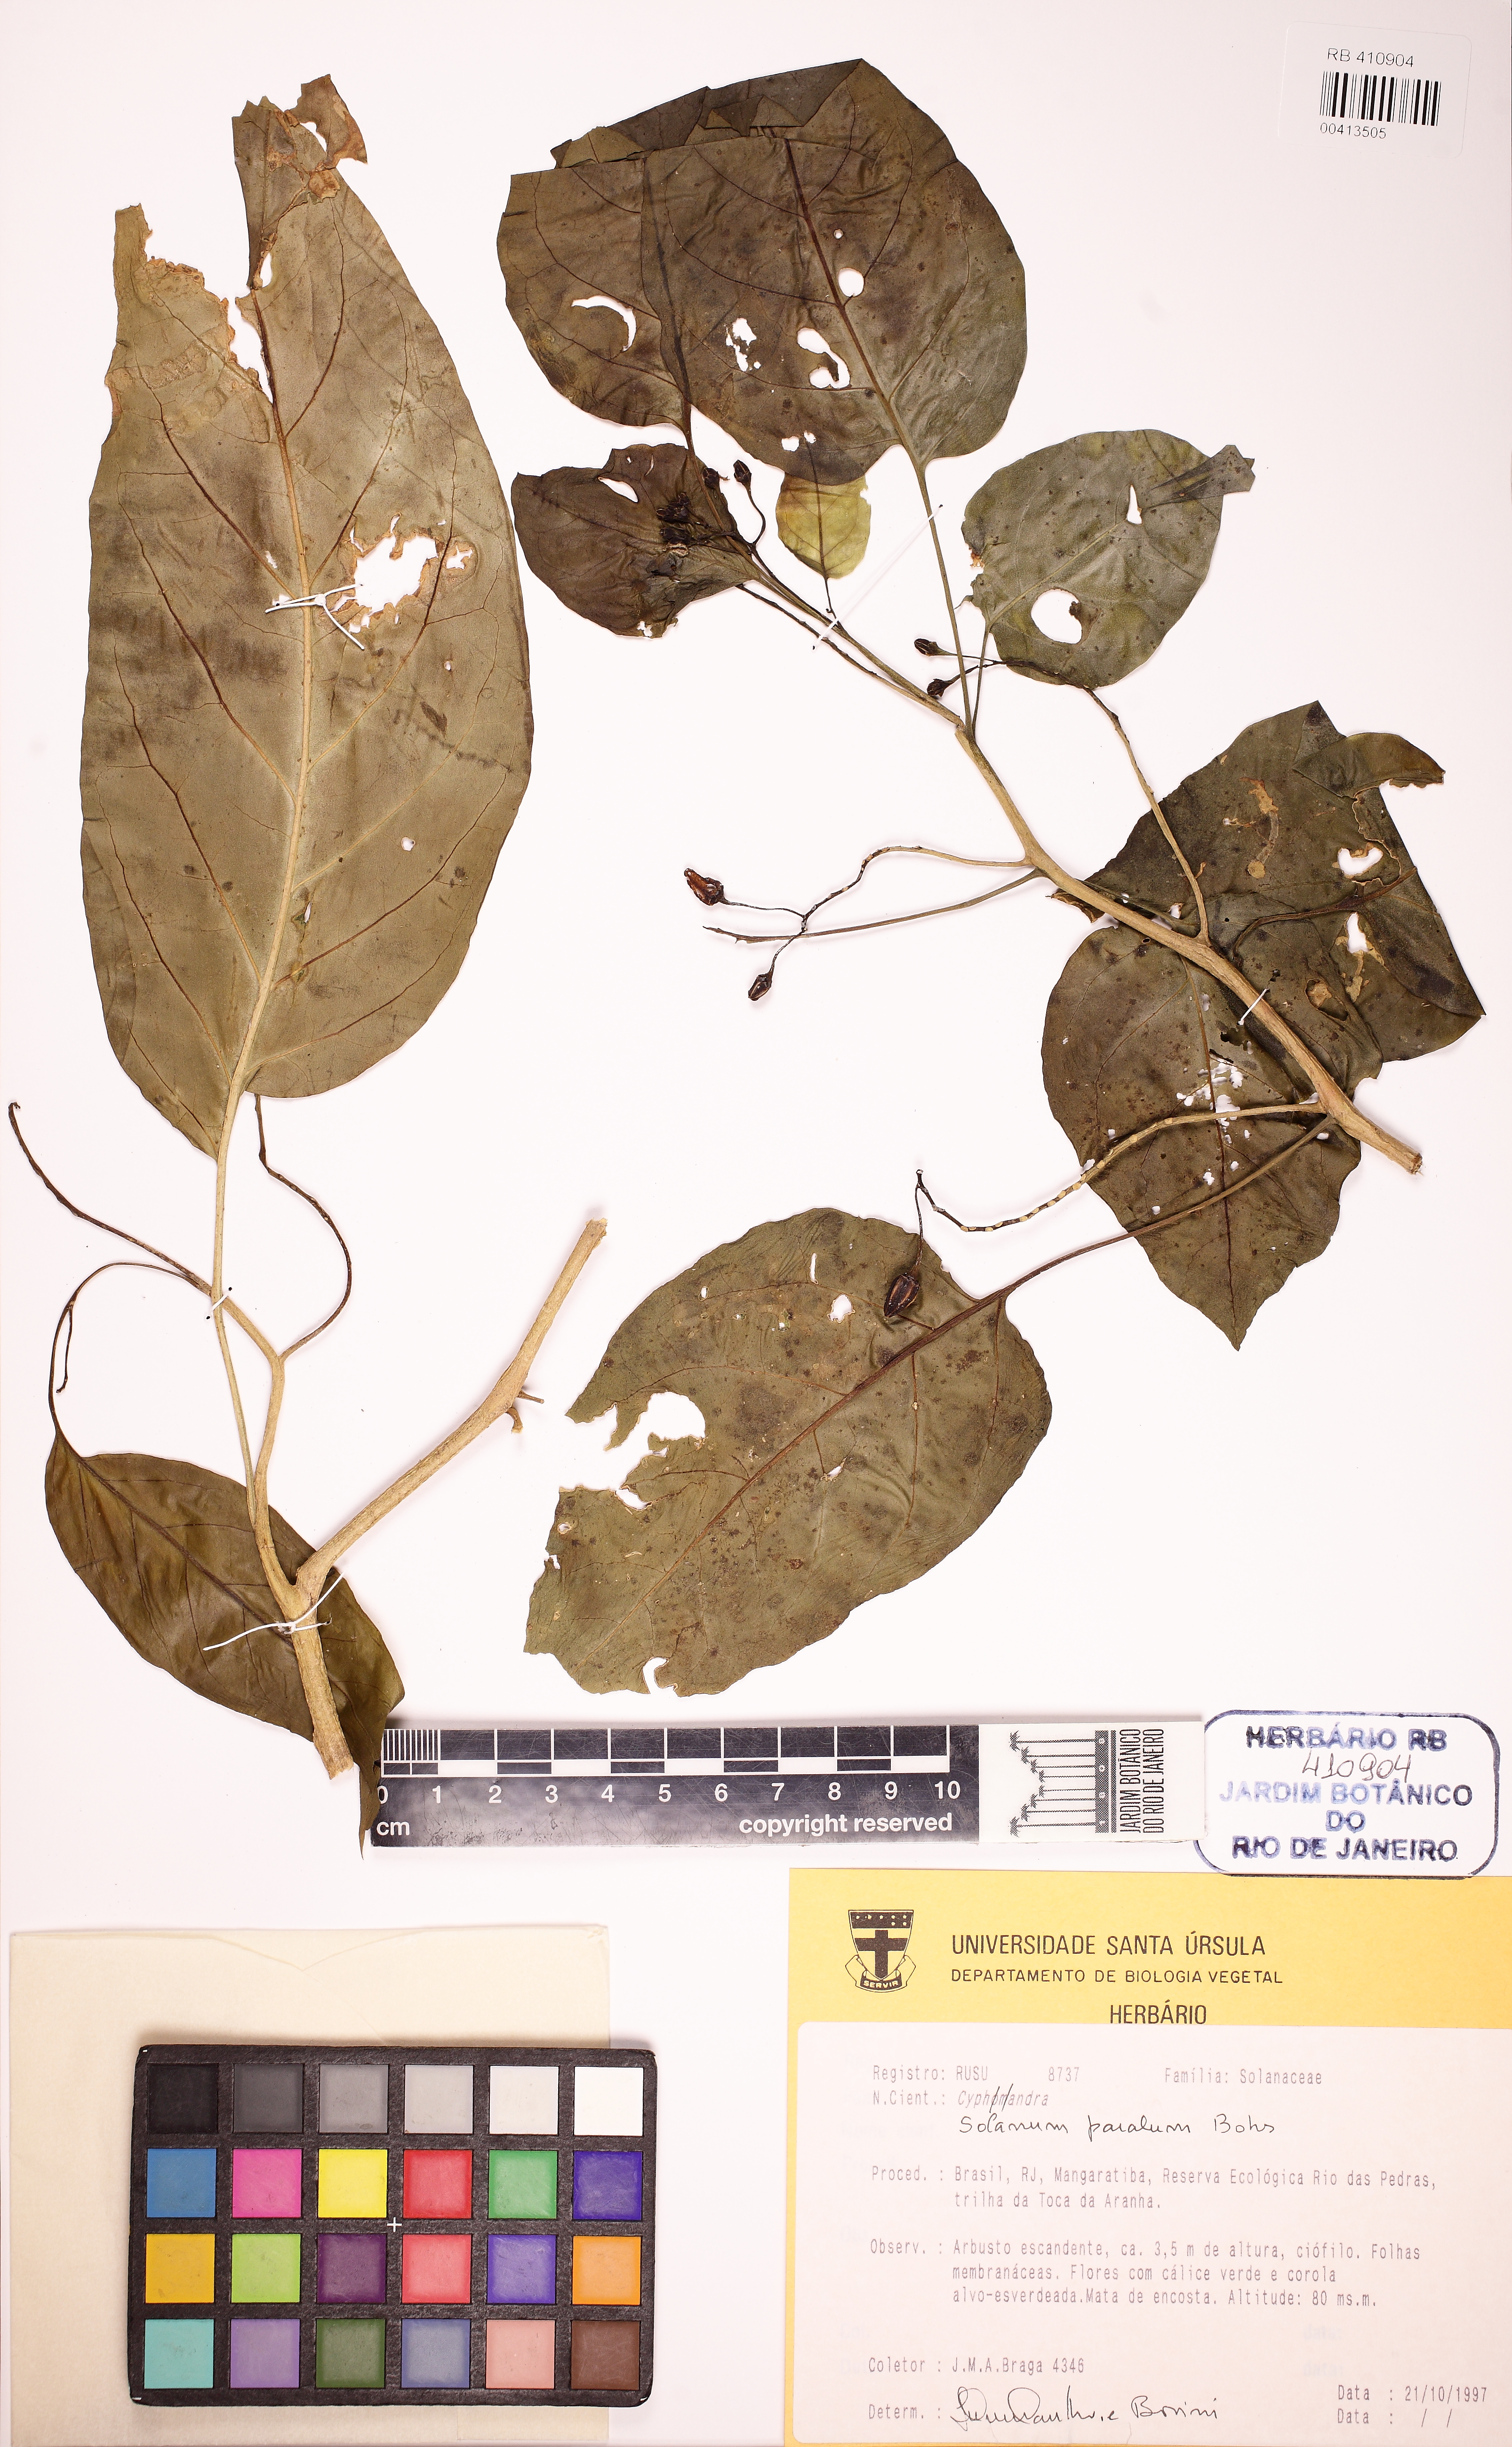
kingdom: Plantae
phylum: Tracheophyta
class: Magnoliopsida
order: Solanales
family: Solanaceae
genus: Solanum
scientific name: Solanum paralum
